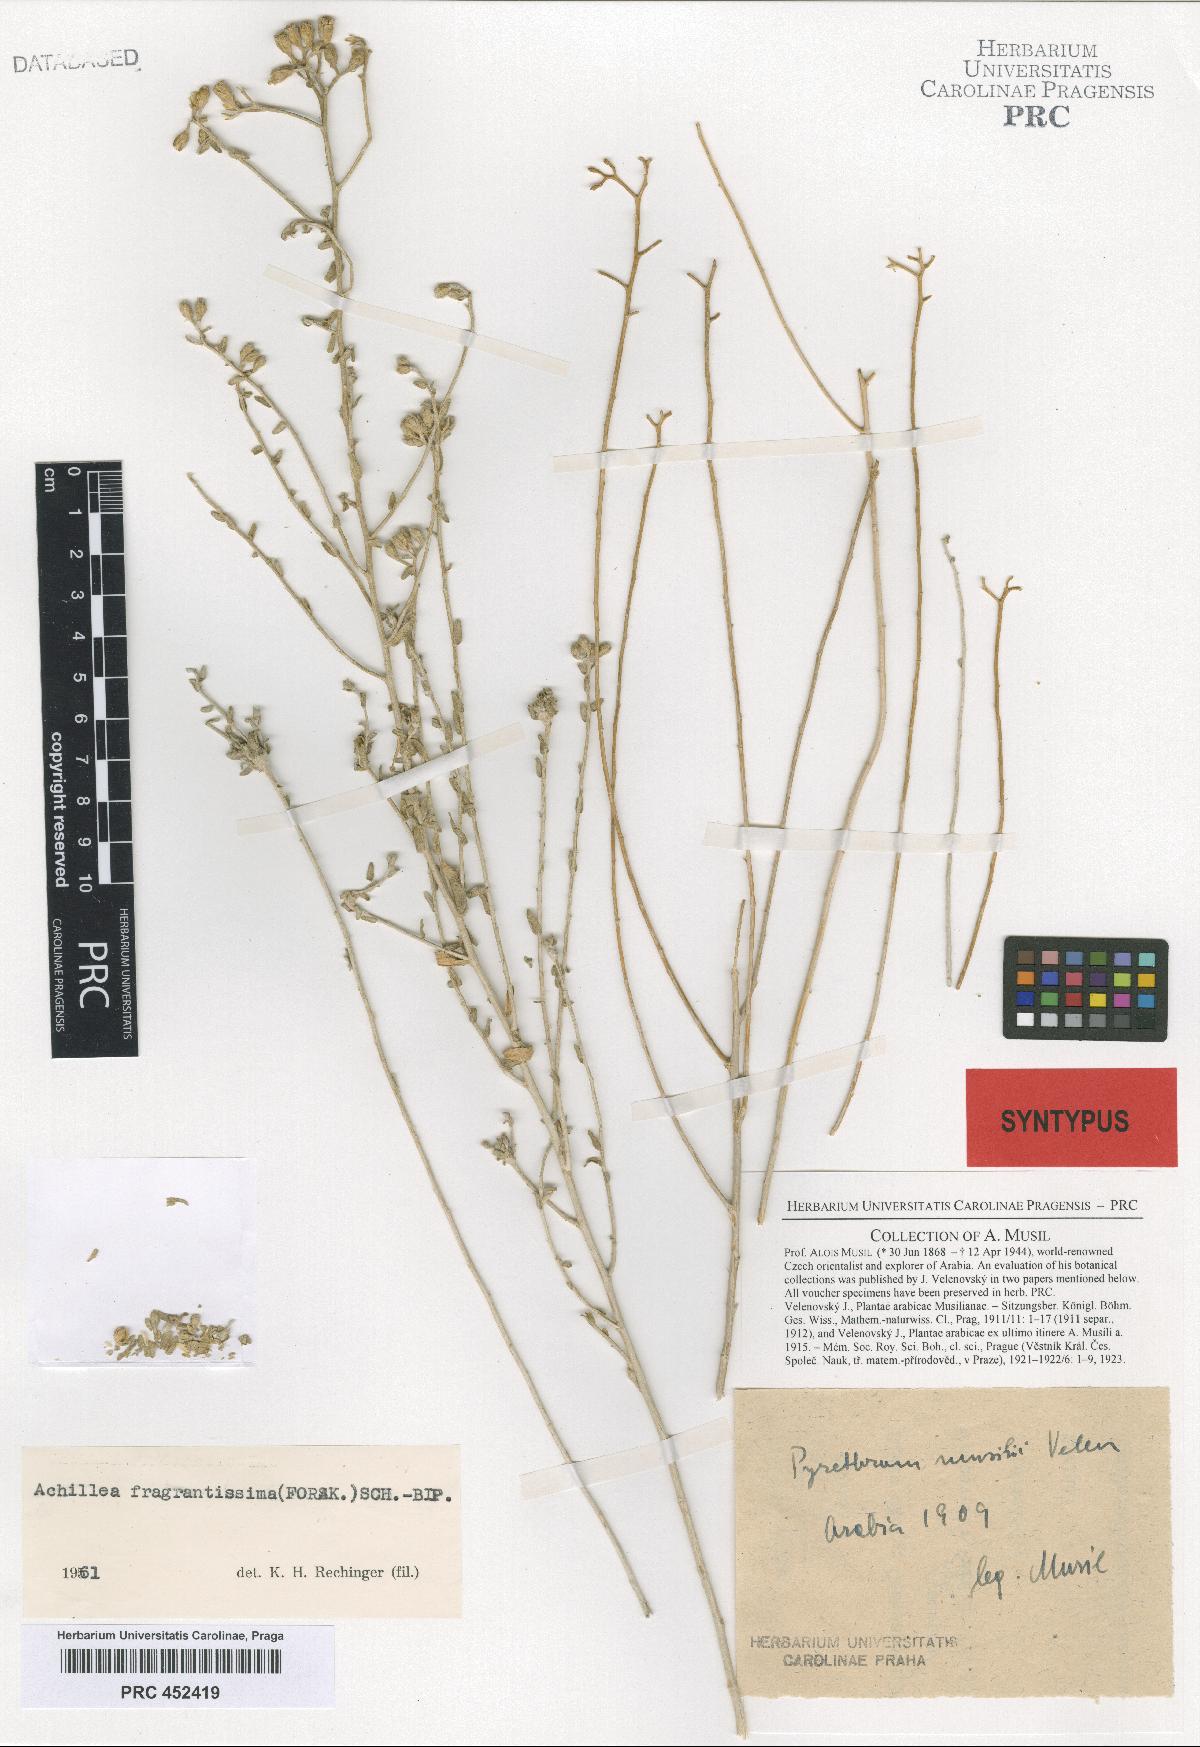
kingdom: Plantae
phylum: Tracheophyta
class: Magnoliopsida
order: Asterales
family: Asteraceae
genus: Tanacetum
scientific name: Tanacetum musili
